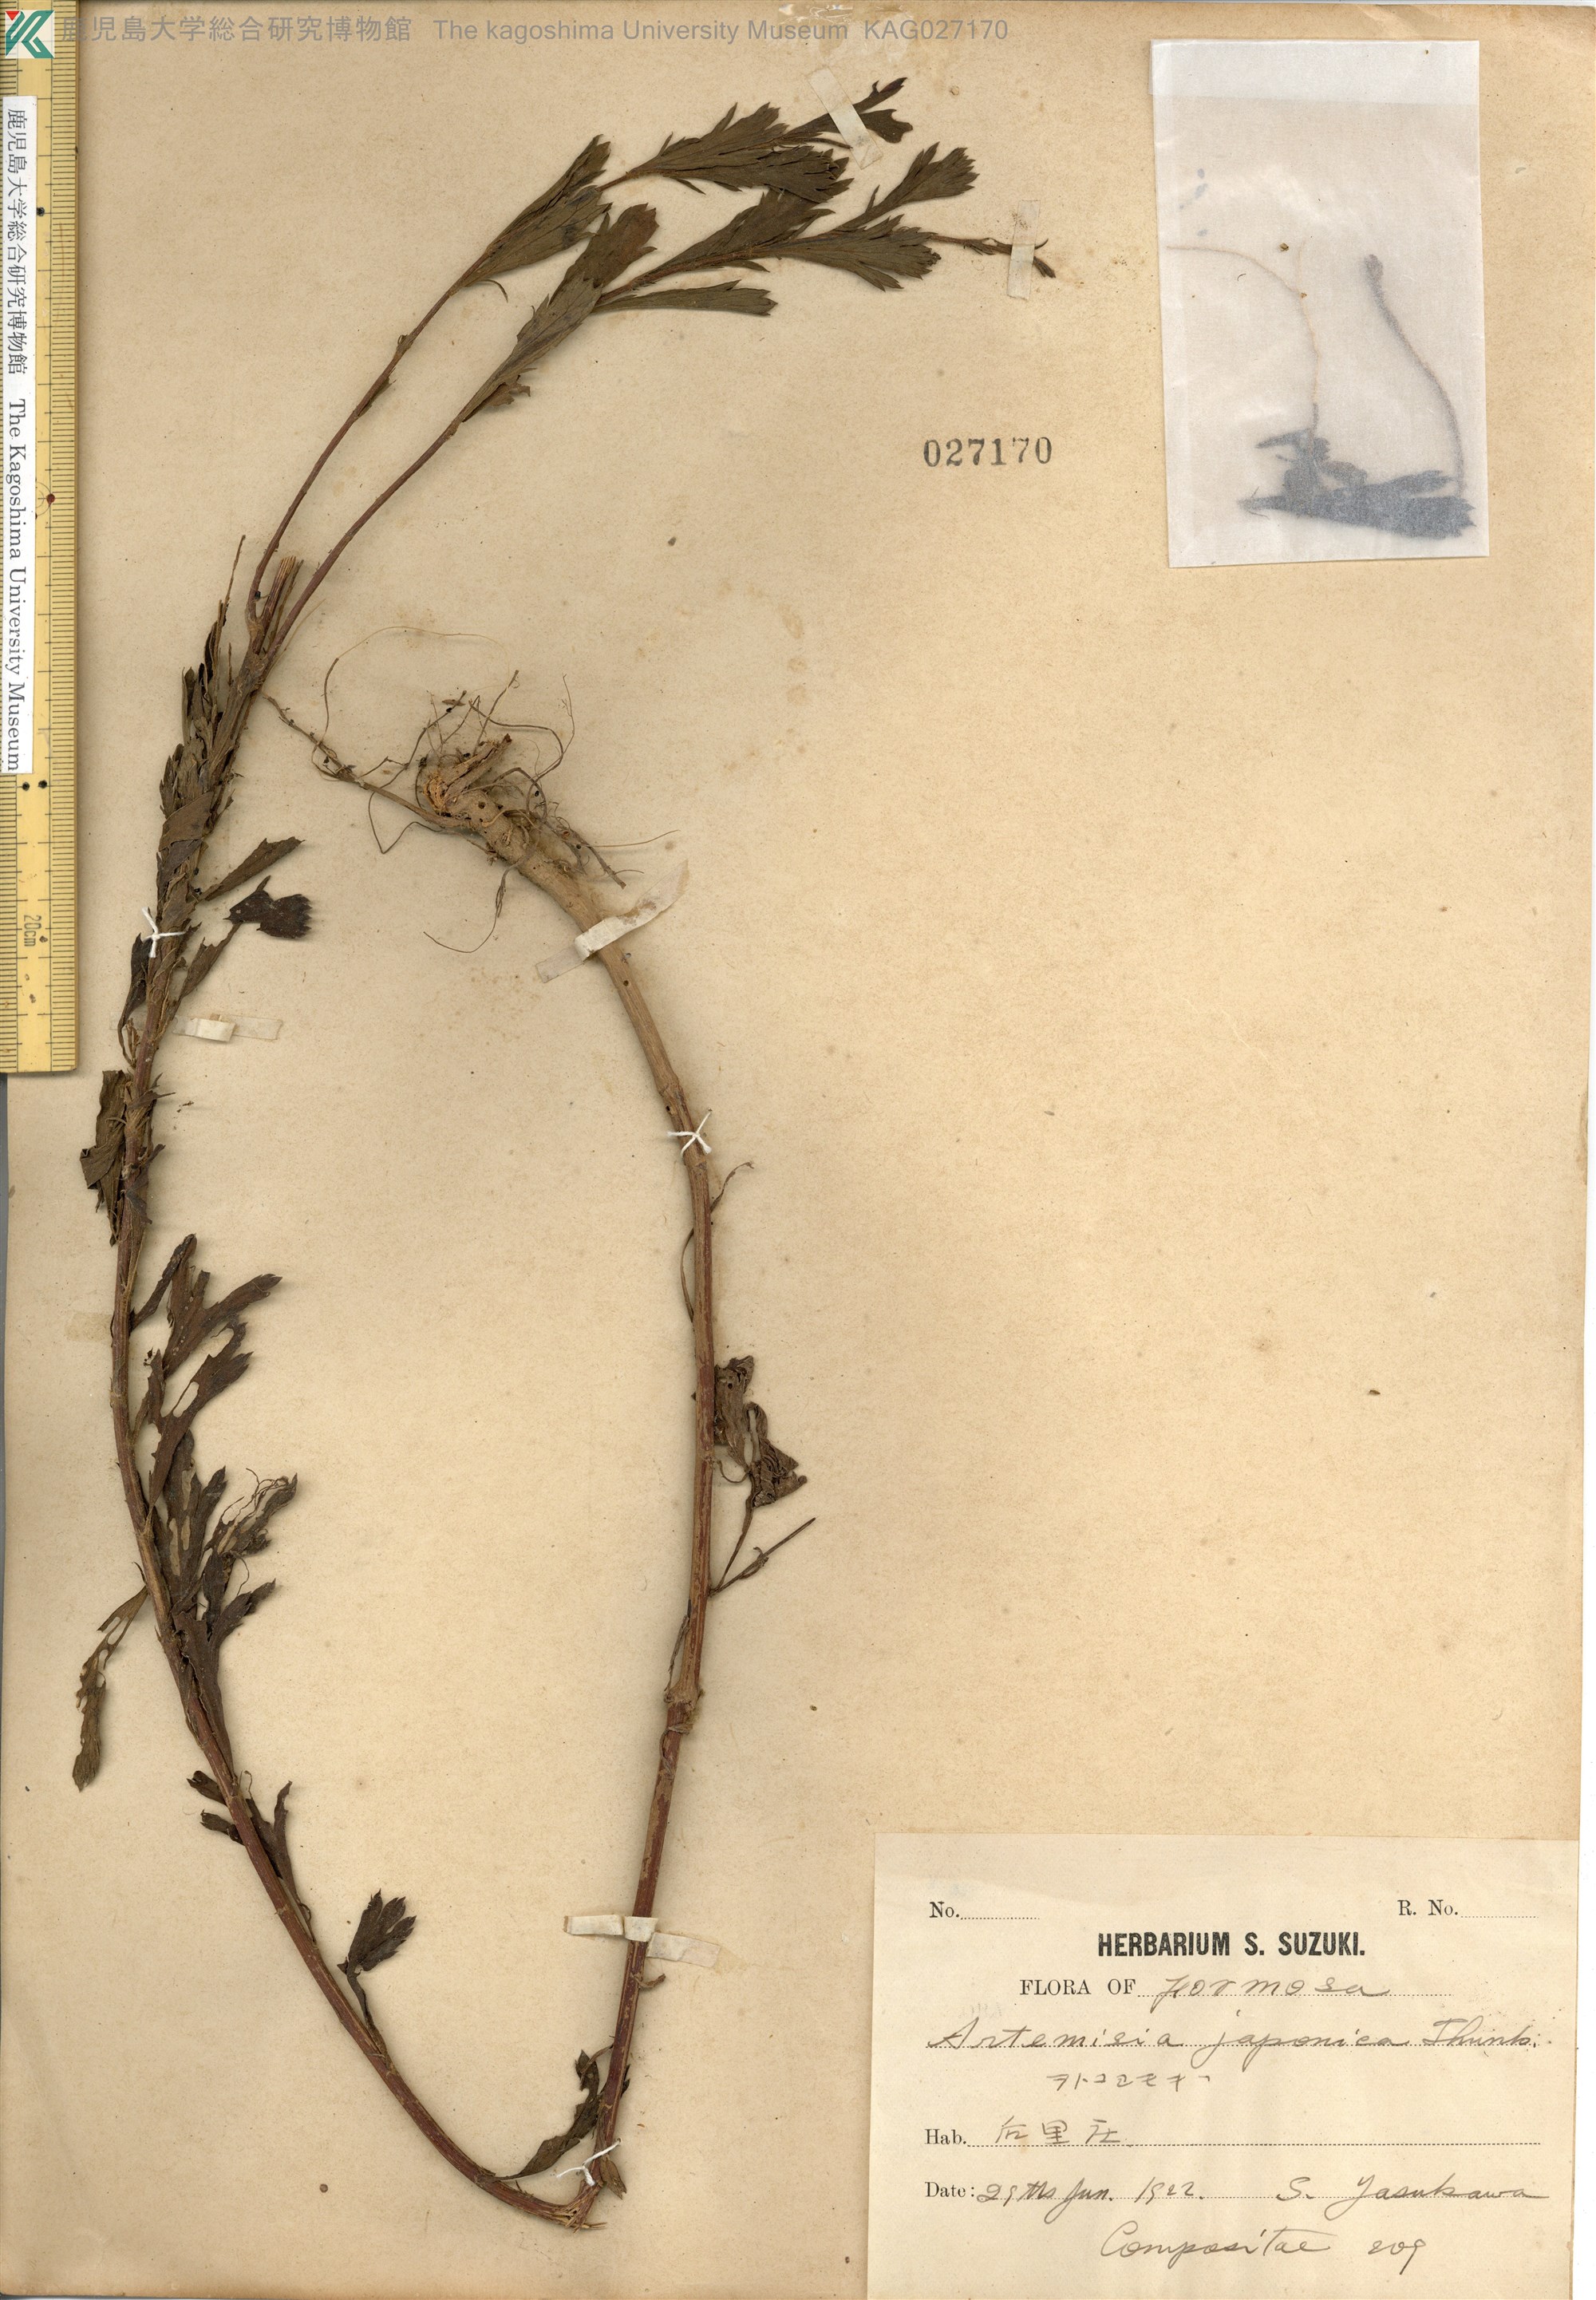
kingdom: Plantae
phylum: Tracheophyta
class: Magnoliopsida
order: Asterales
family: Asteraceae
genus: Artemisia
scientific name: Artemisia japonica
